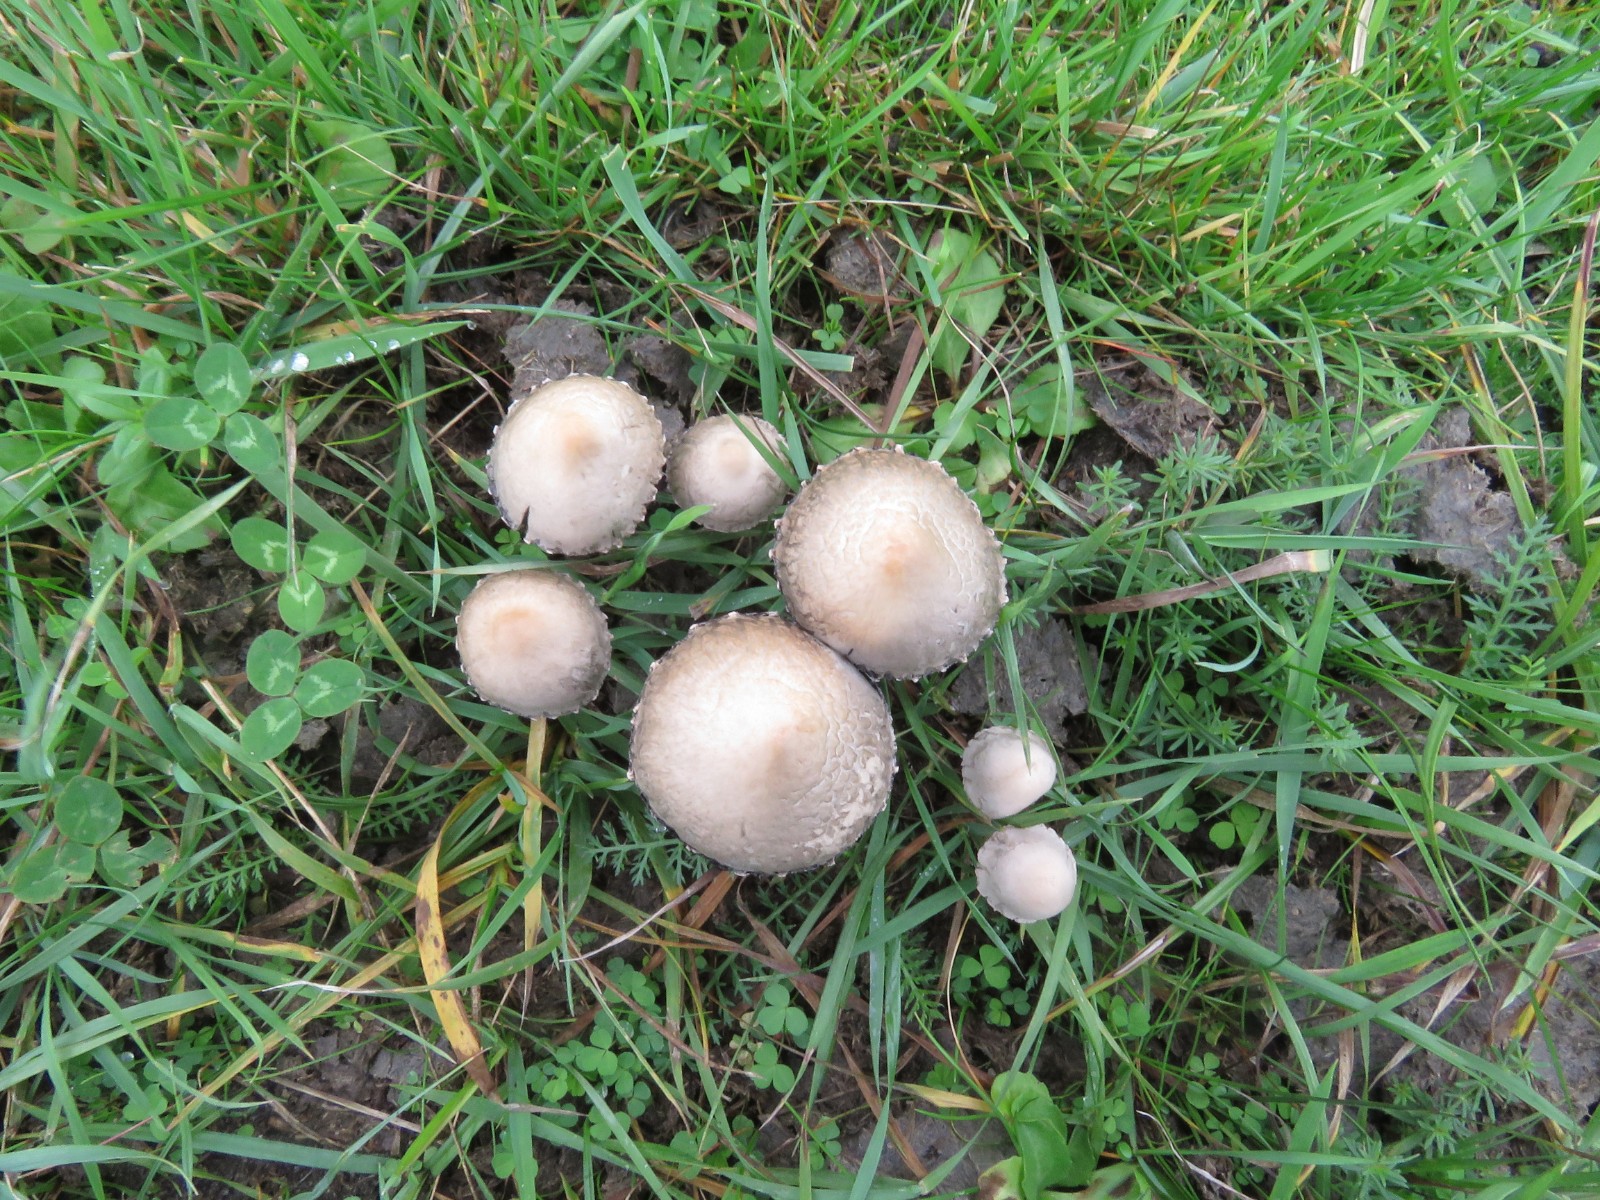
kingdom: Fungi
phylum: Basidiomycota
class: Agaricomycetes
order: Agaricales
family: Bolbitiaceae
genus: Panaeolus
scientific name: Panaeolus papilionaceus
